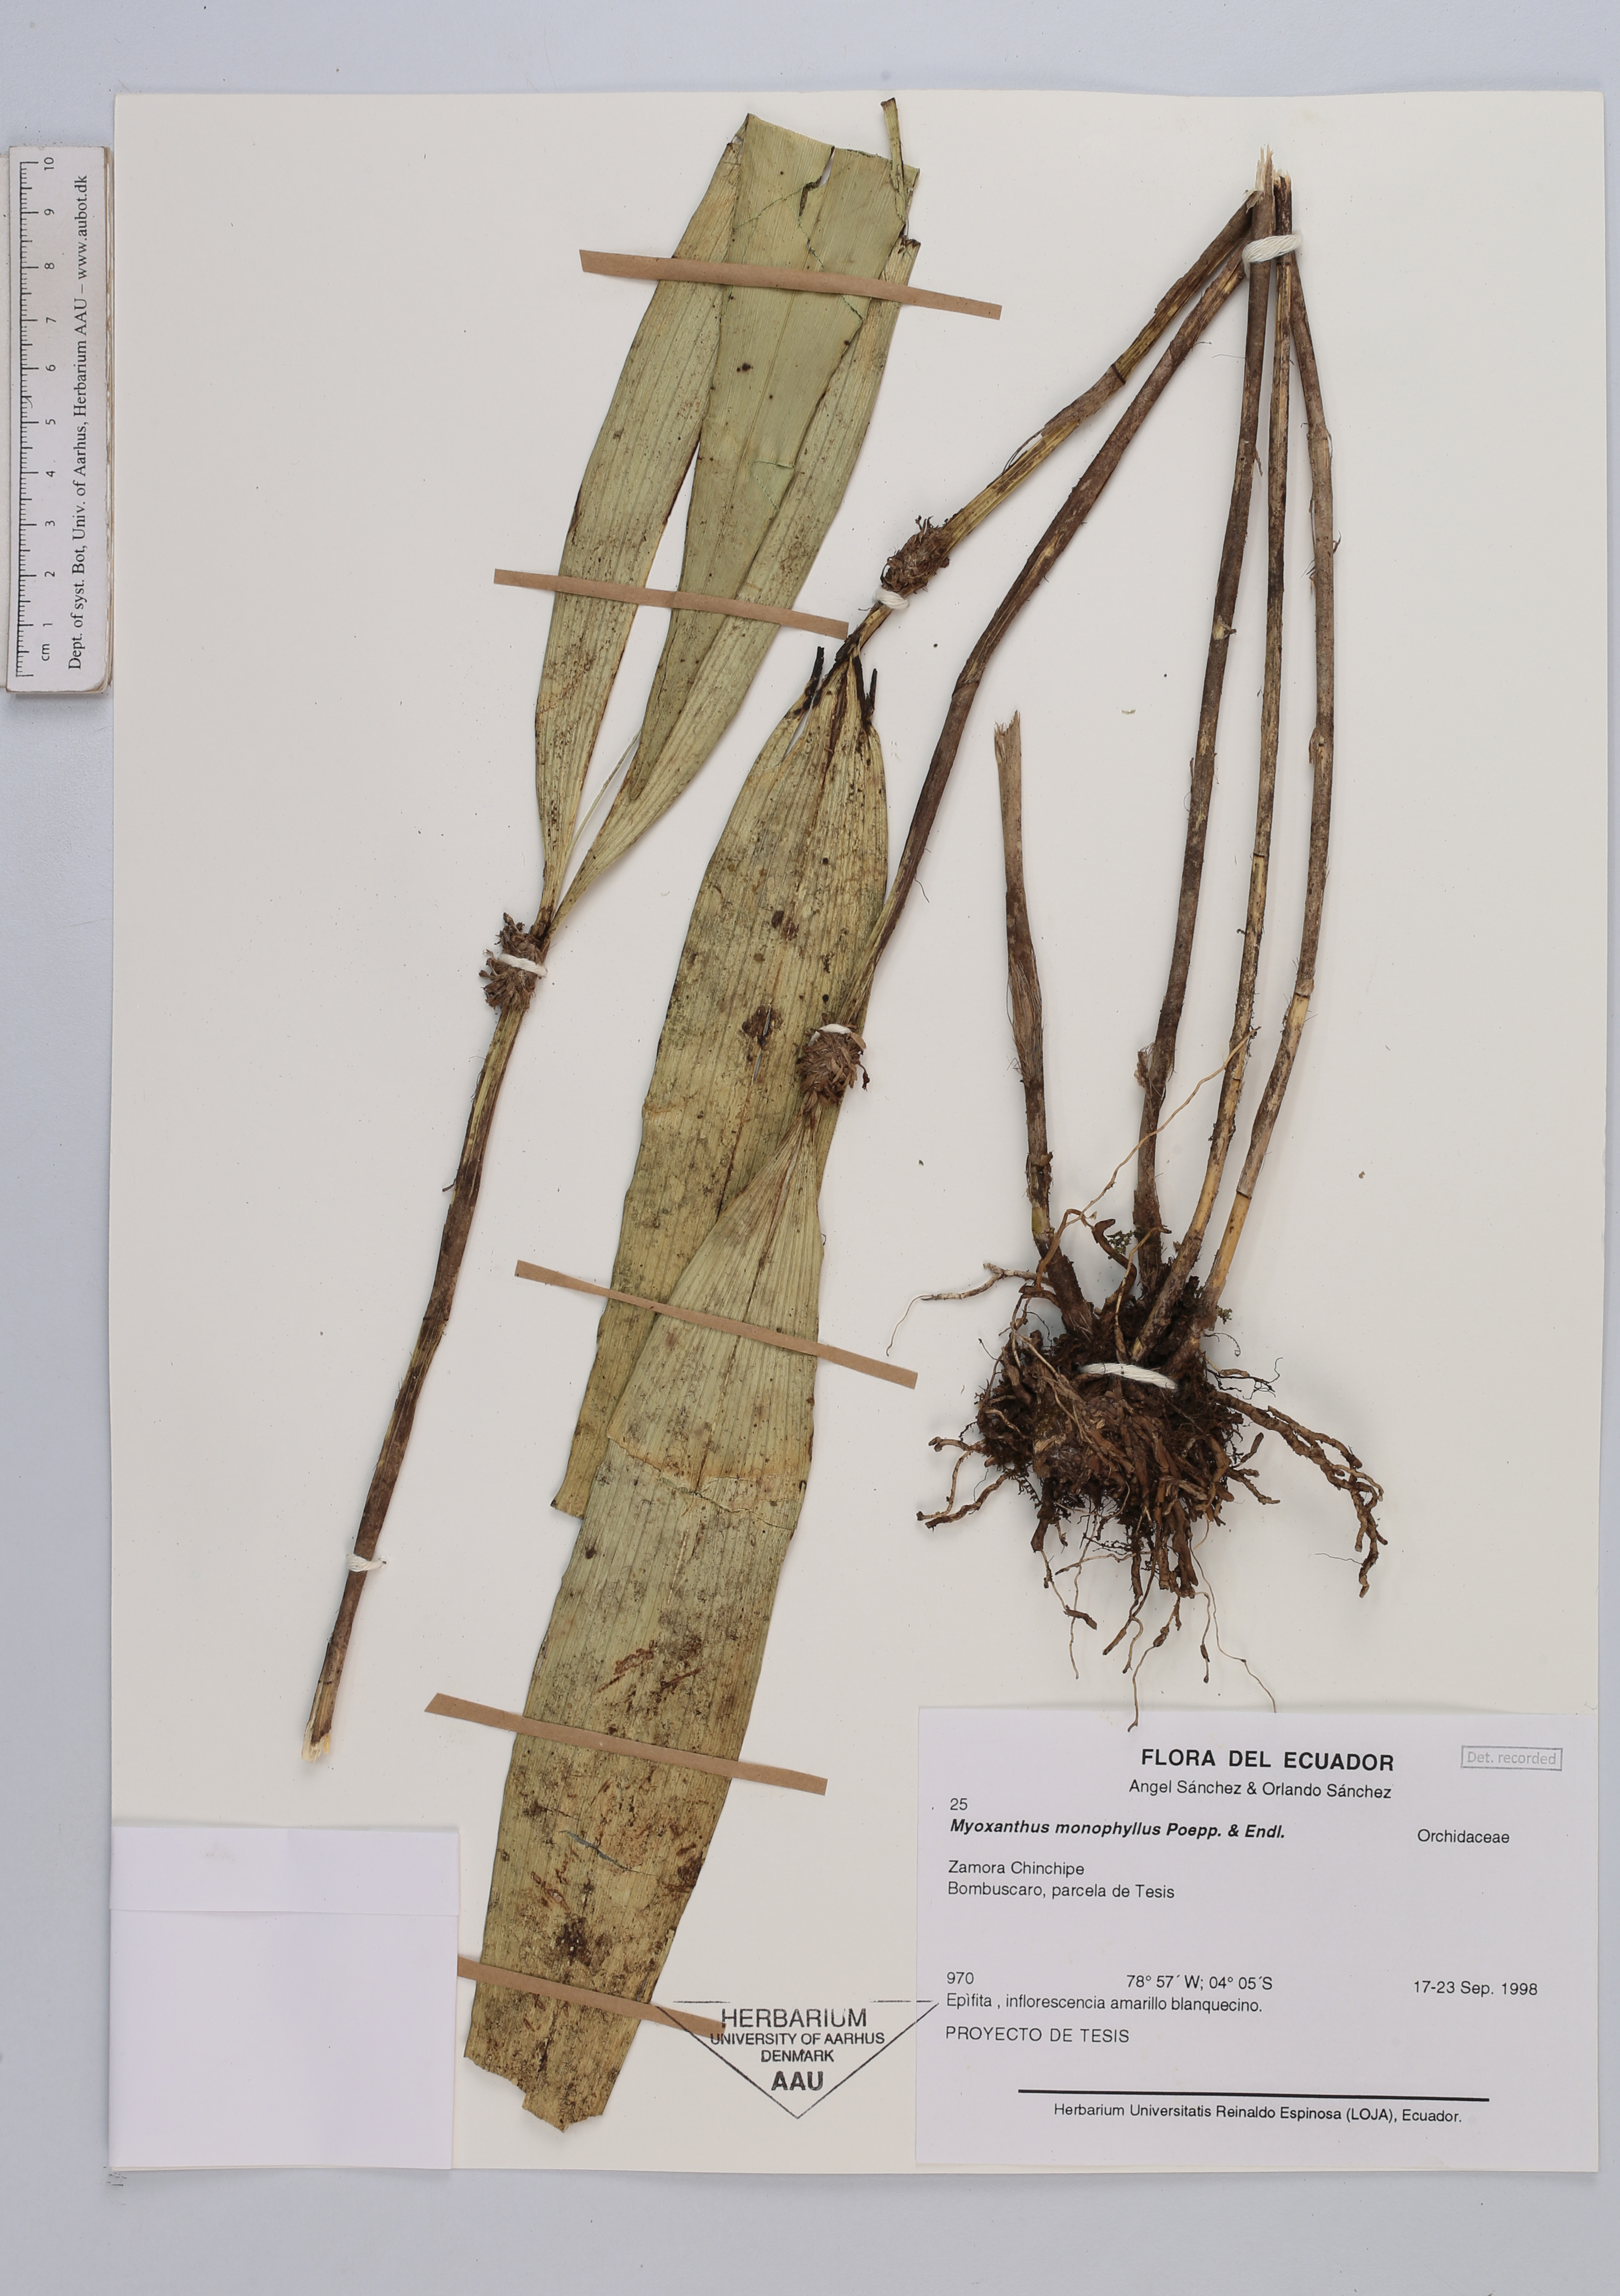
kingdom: Plantae
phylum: Tracheophyta
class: Liliopsida
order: Asparagales
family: Orchidaceae
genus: Myoxanthus
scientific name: Myoxanthus monophyllus
